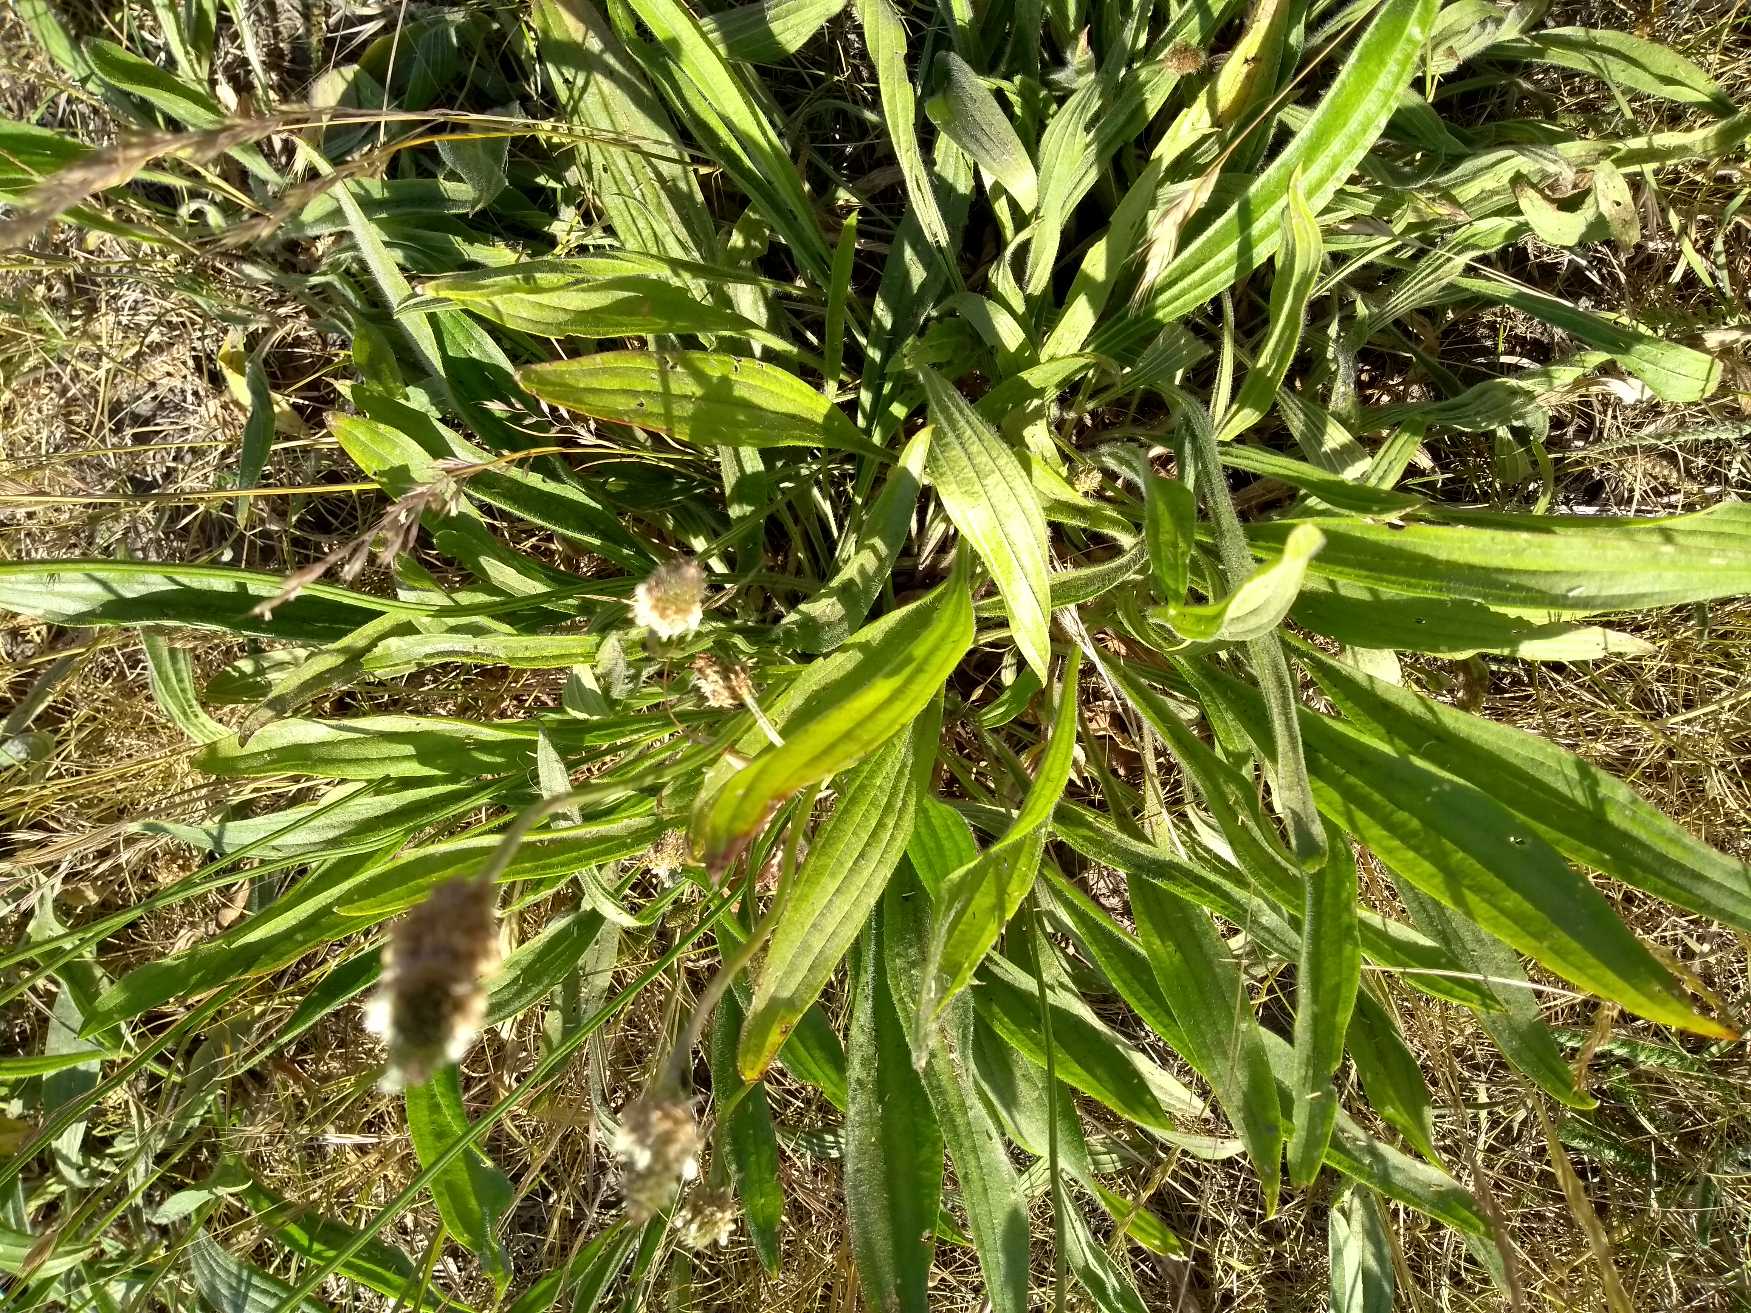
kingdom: Plantae
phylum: Tracheophyta
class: Magnoliopsida
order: Lamiales
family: Plantaginaceae
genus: Plantago
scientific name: Plantago lanceolata
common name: Lancet-vejbred
